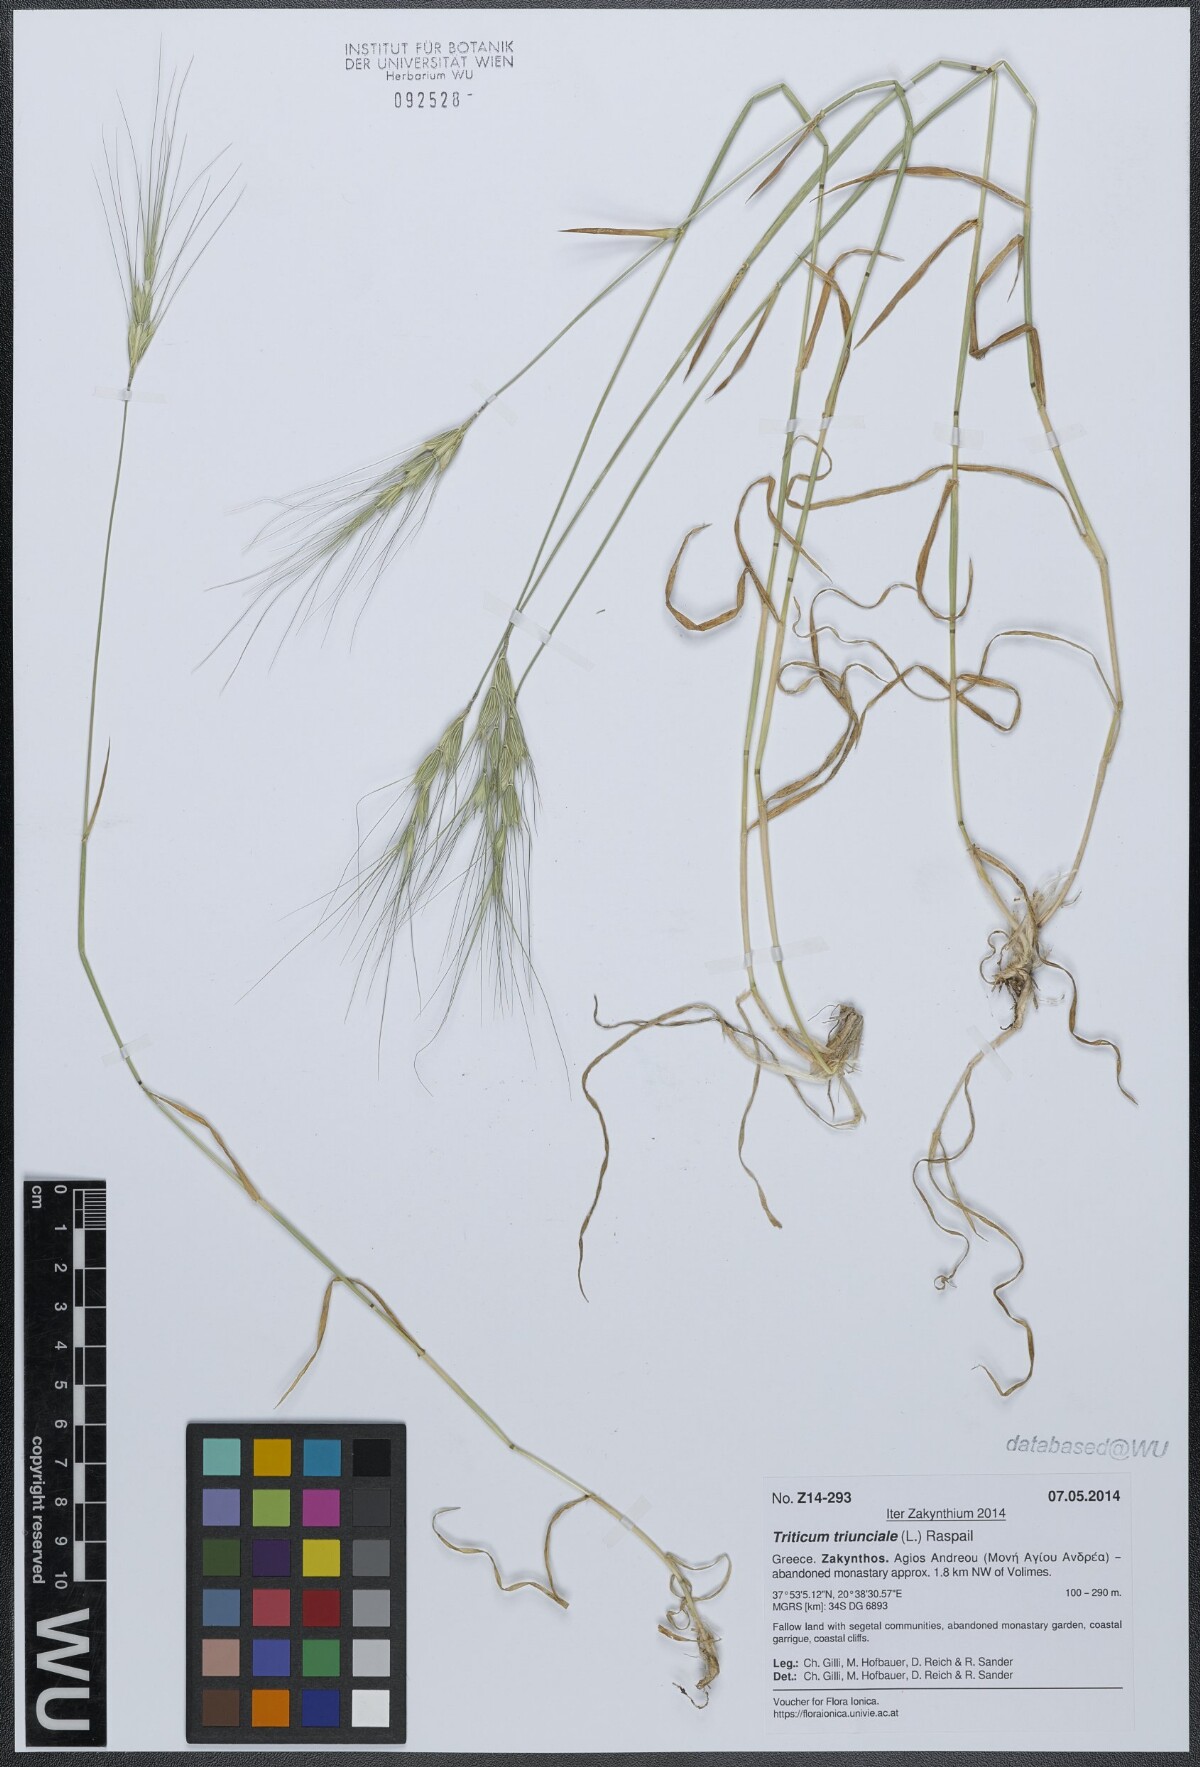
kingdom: Plantae
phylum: Tracheophyta
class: Liliopsida
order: Poales
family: Poaceae
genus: Aegilops
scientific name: Aegilops triuncialis
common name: Barb goat grass
